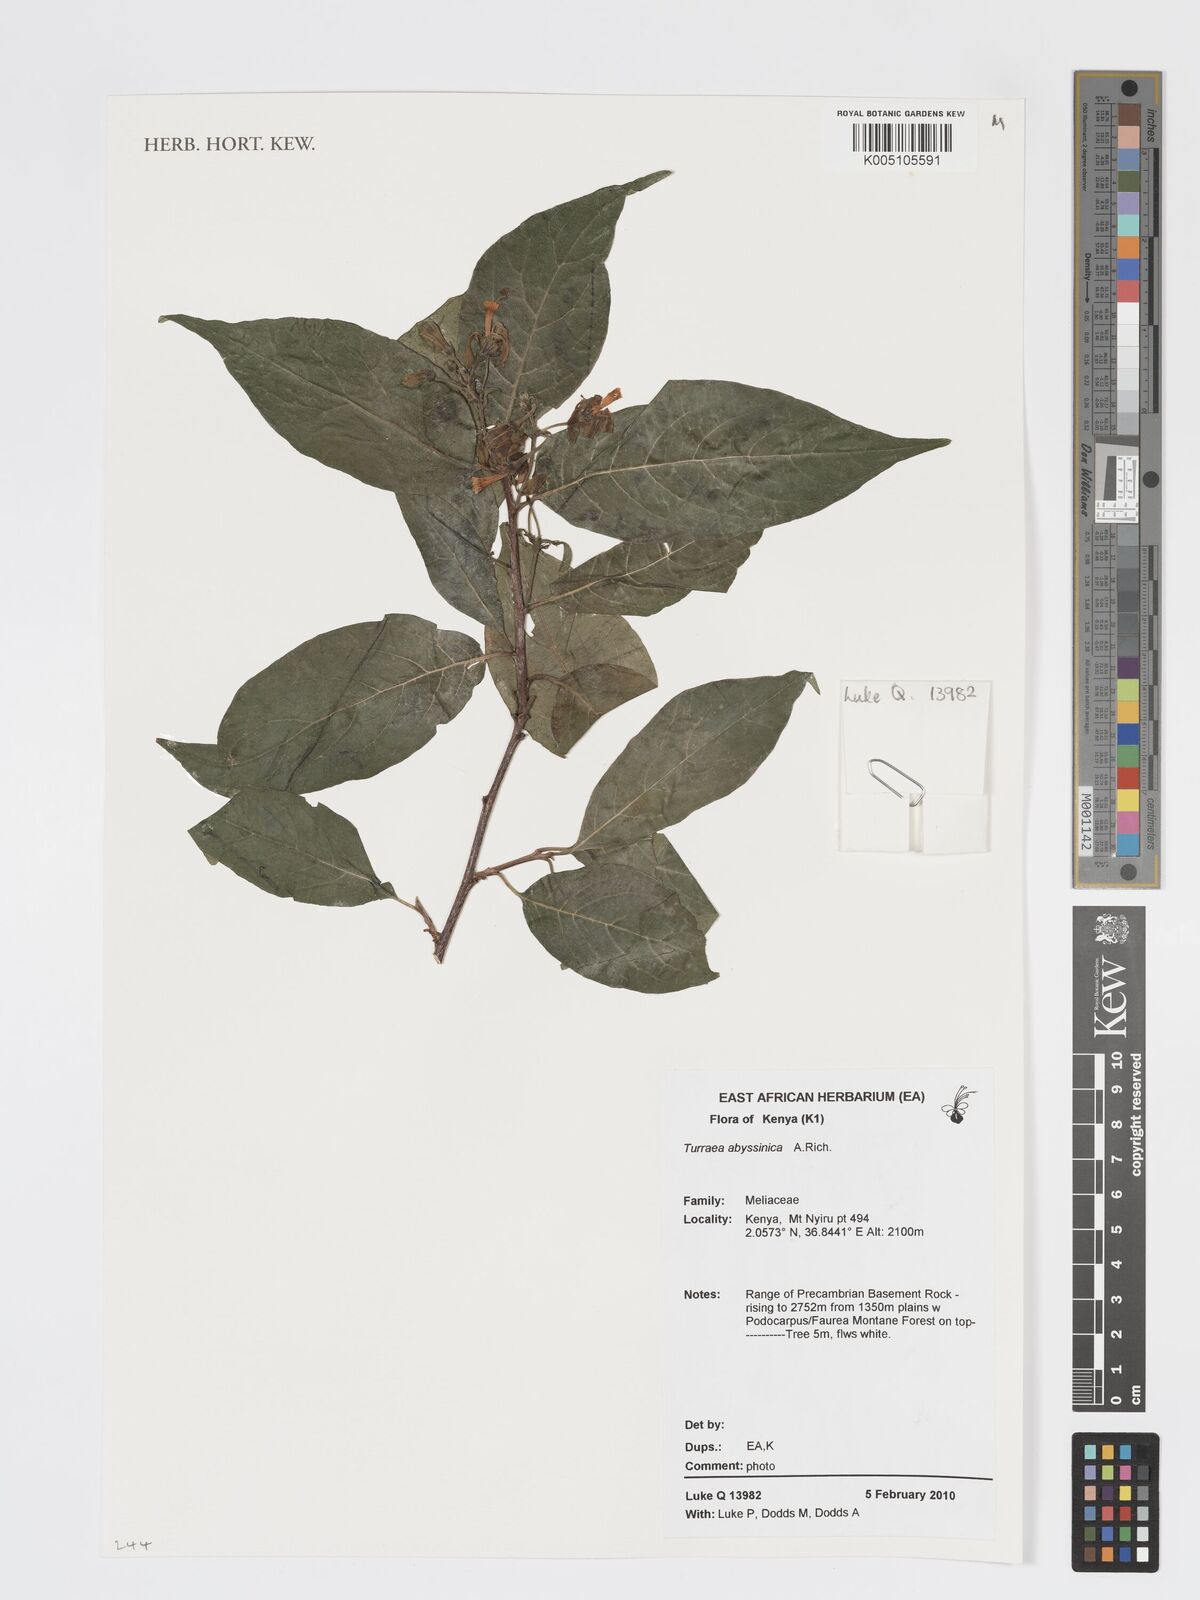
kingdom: Plantae
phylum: Tracheophyta
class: Magnoliopsida
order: Sapindales
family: Meliaceae
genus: Turraea
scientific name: Turraea abyssinica
